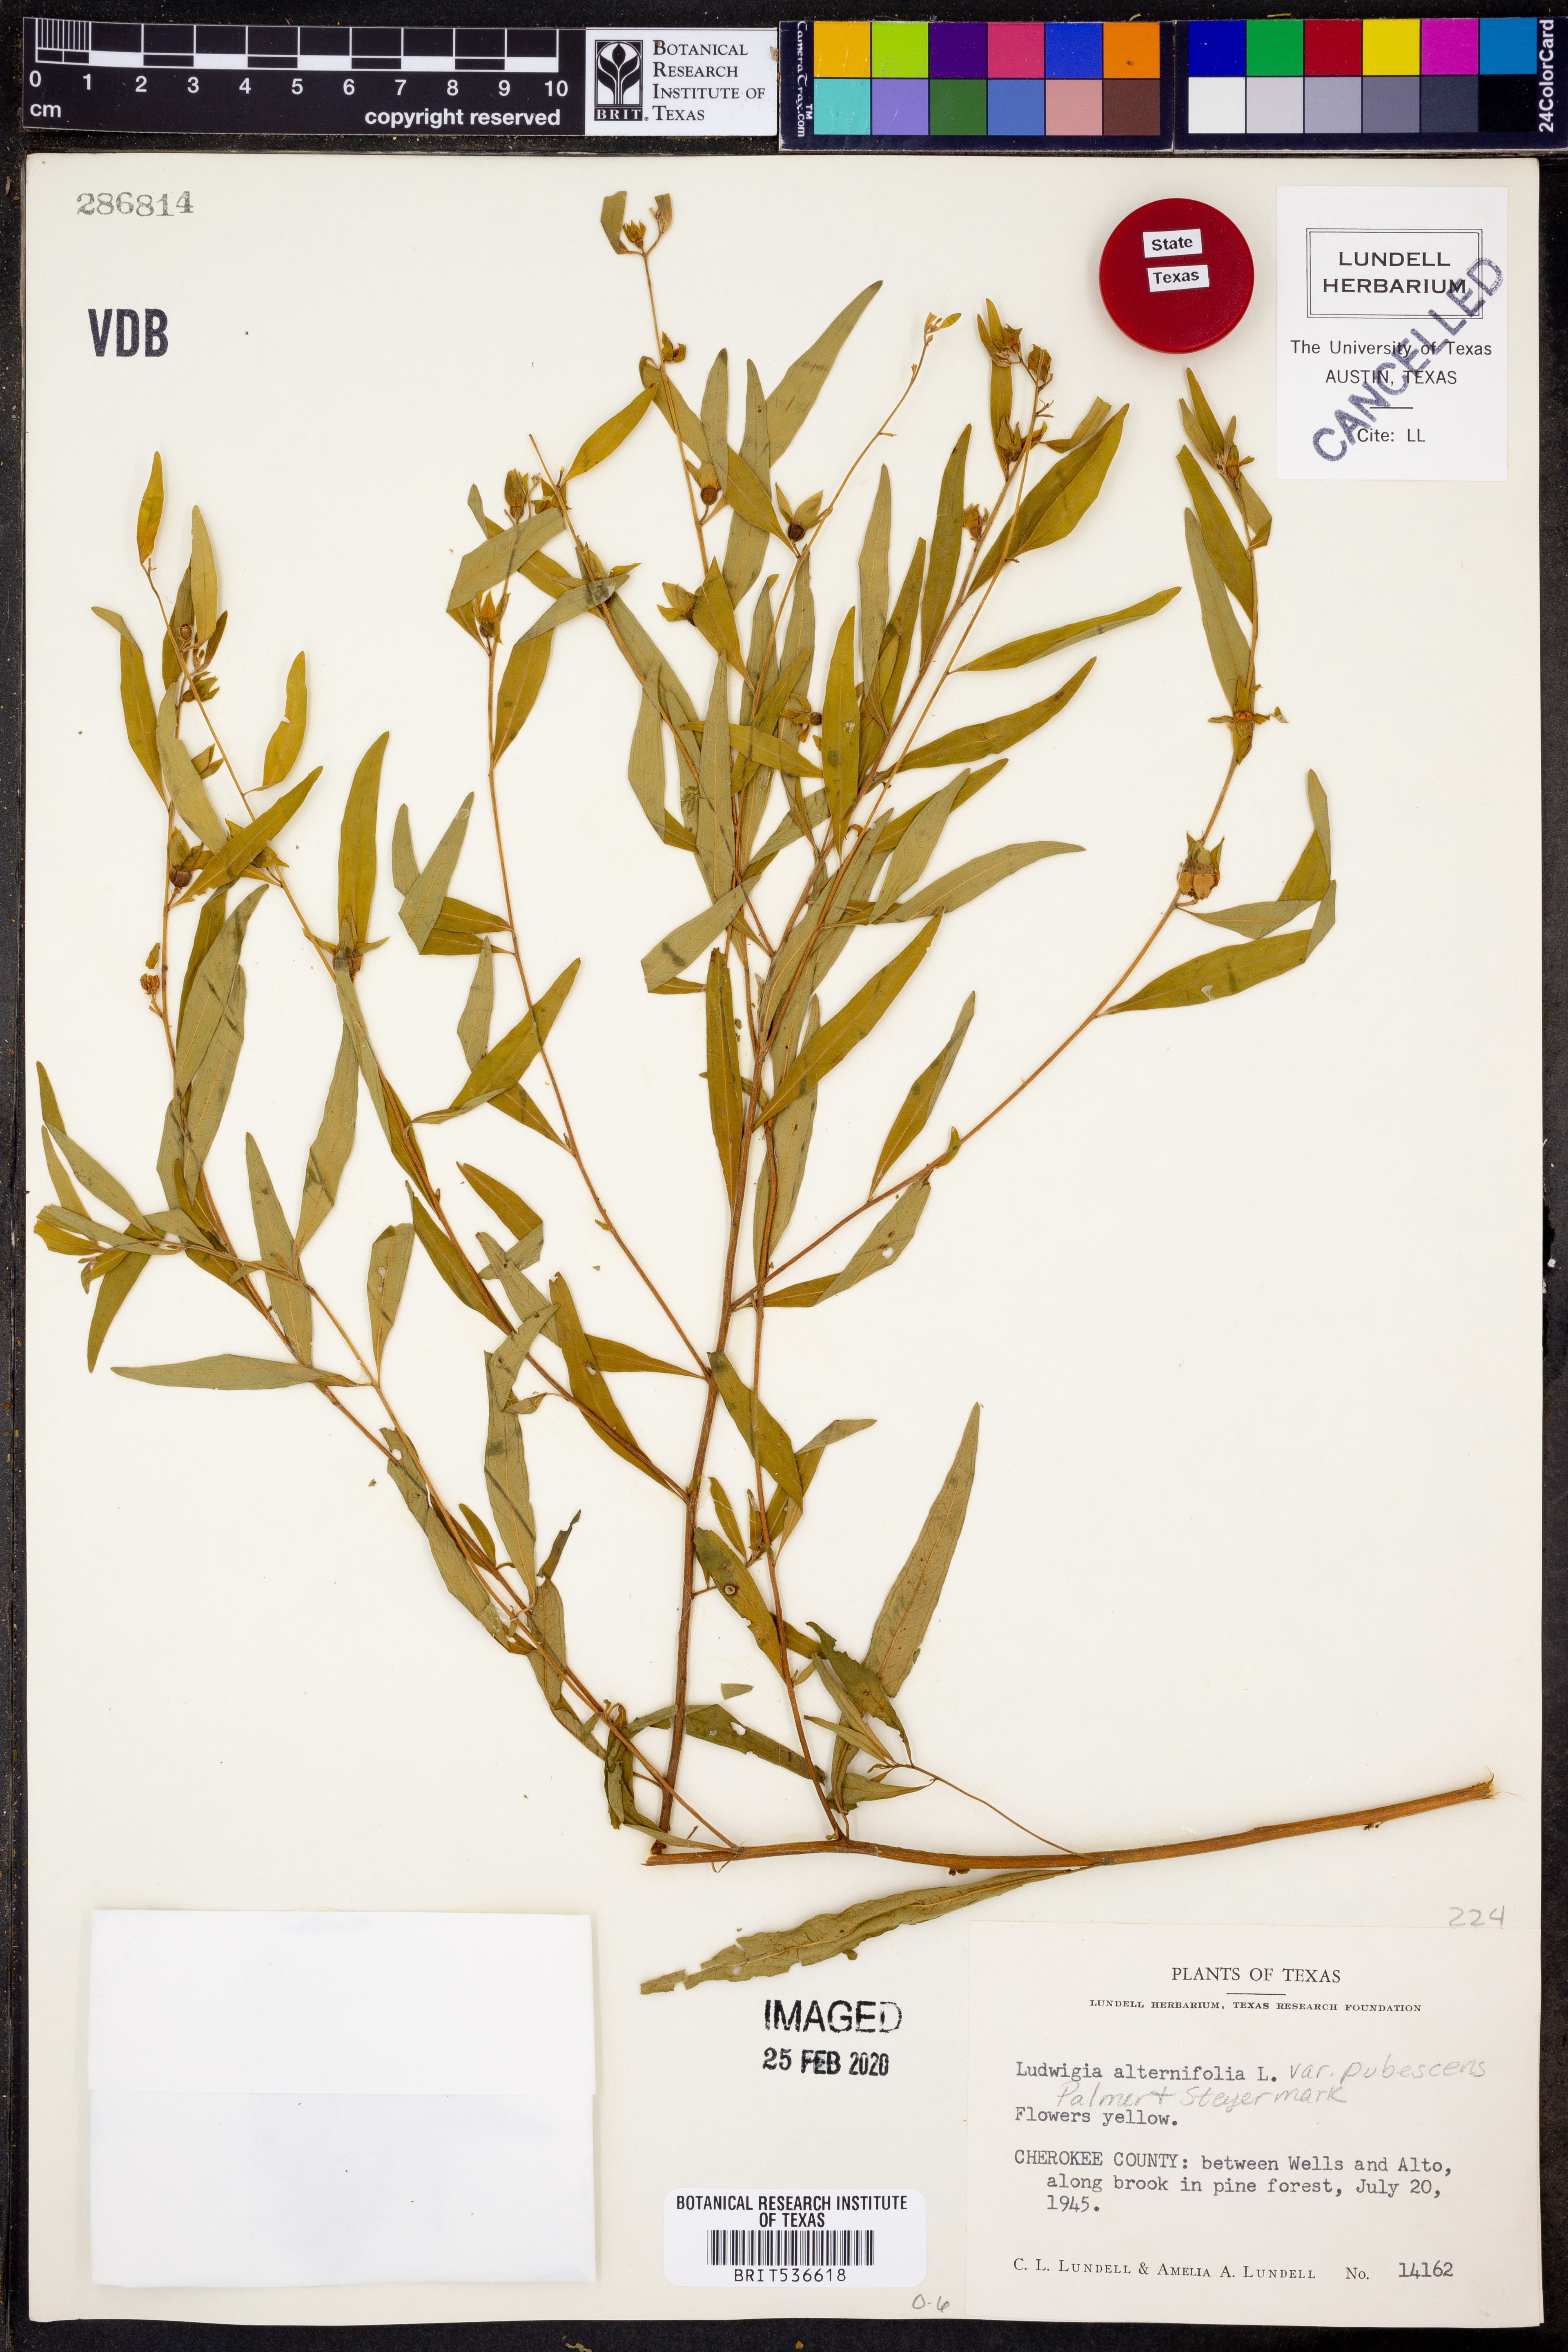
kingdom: Plantae
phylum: Tracheophyta
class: Magnoliopsida
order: Myrtales
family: Onagraceae
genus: Ludwigia
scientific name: Ludwigia alternifolia
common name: Rattlebox
